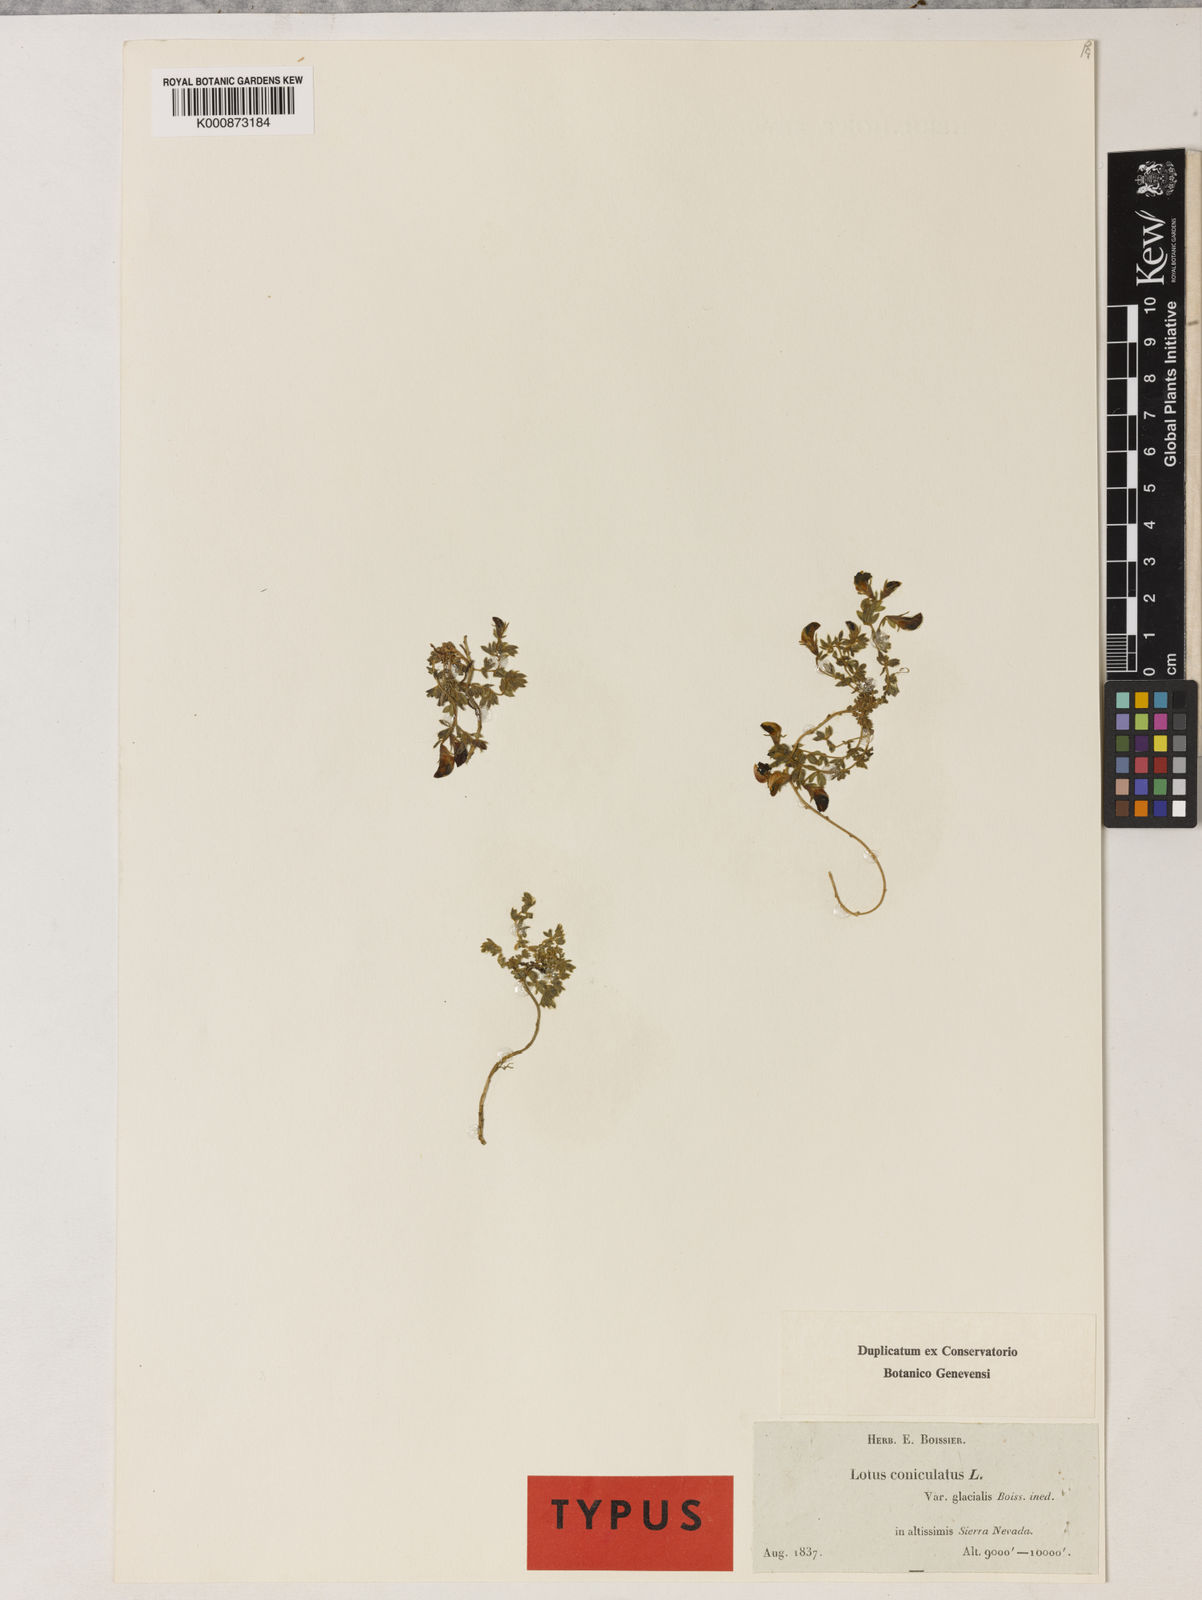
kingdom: Plantae
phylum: Tracheophyta
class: Magnoliopsida
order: Fabales
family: Fabaceae
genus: Lotus
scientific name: Lotus glareosus
